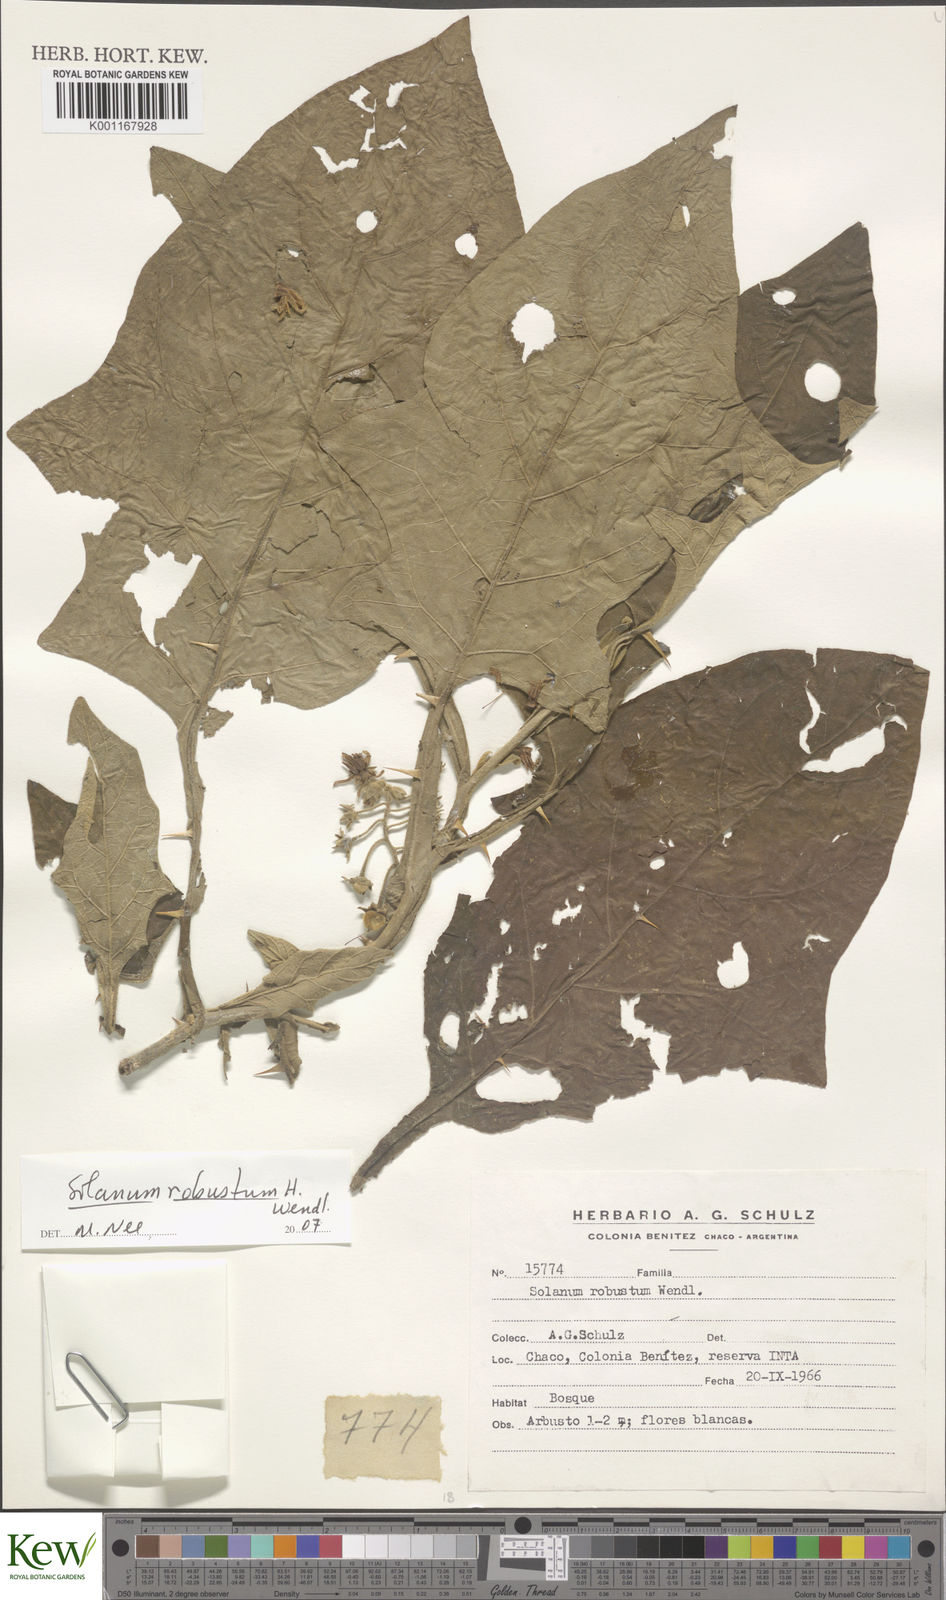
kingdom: Plantae
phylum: Tracheophyta
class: Magnoliopsida
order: Solanales
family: Solanaceae
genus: Solanum
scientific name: Solanum robustum
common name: Shrubby nightshade
